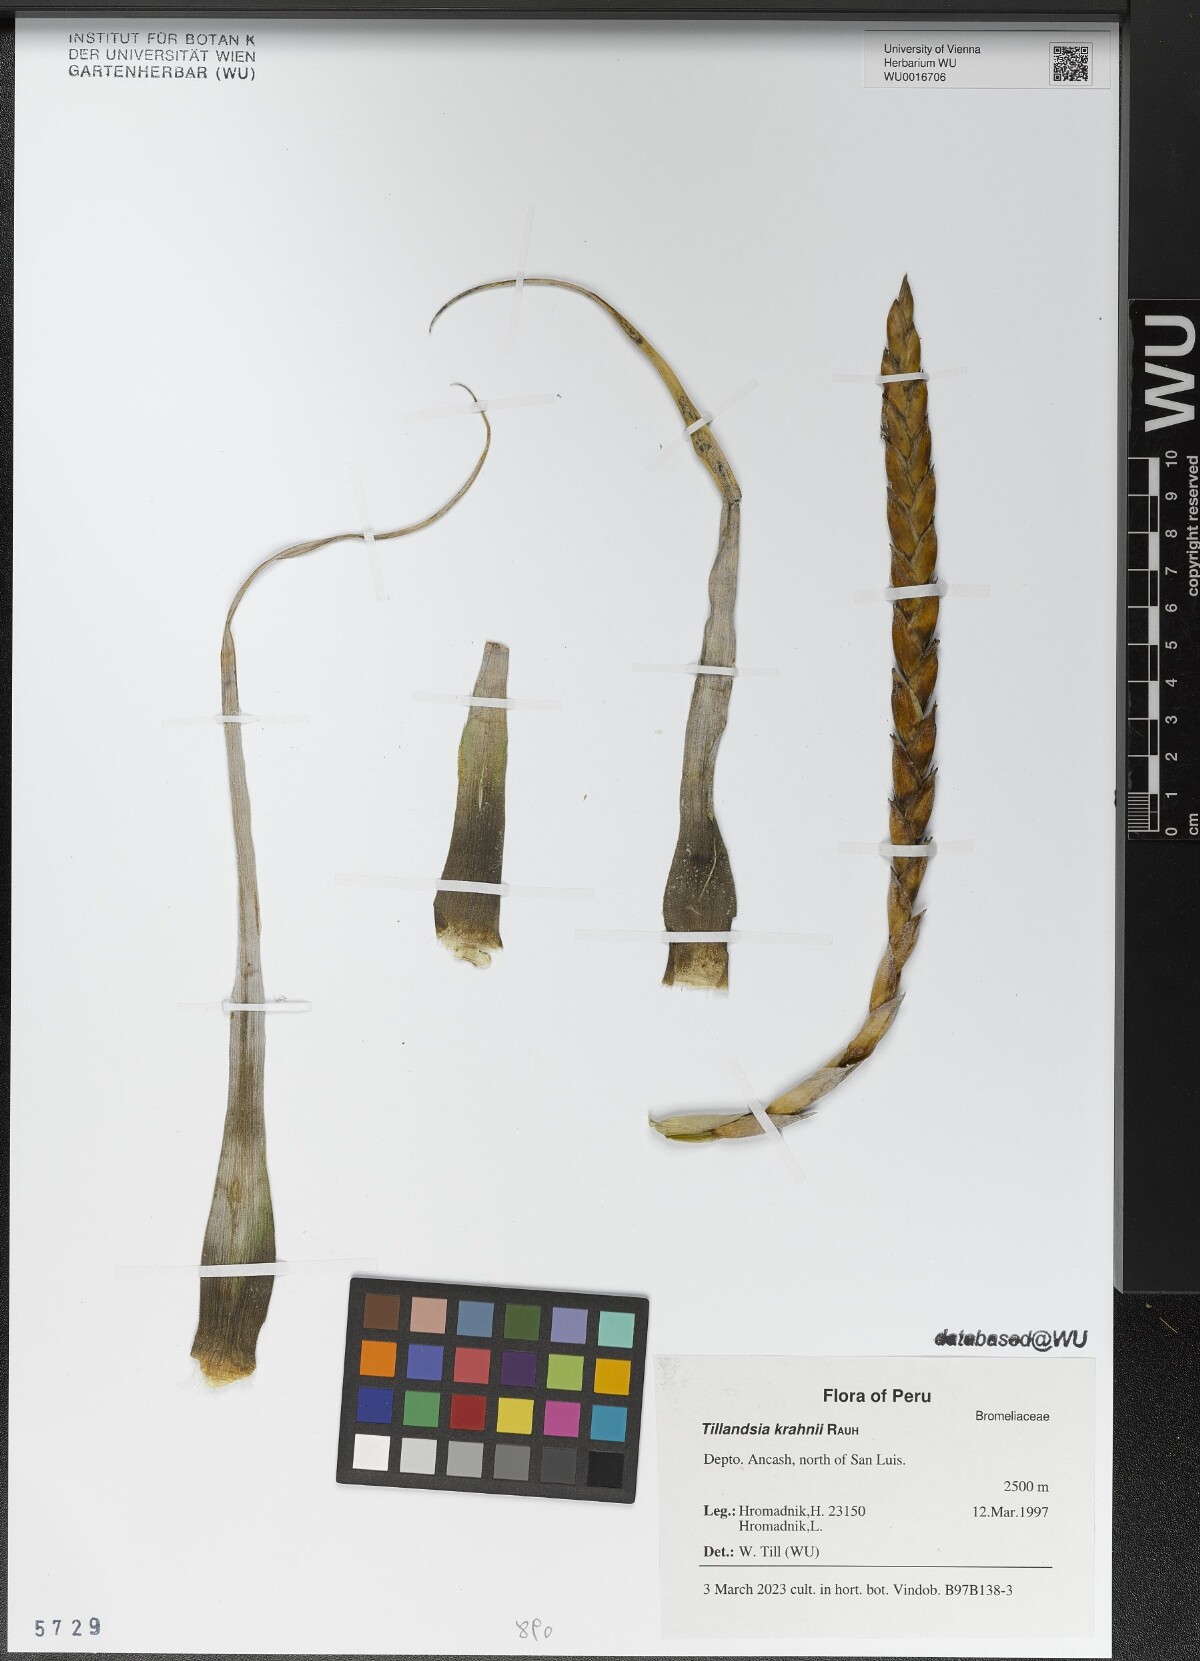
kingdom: Plantae
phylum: Tracheophyta
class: Liliopsida
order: Poales
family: Bromeliaceae
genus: Tillandsia
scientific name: Tillandsia krahnii
